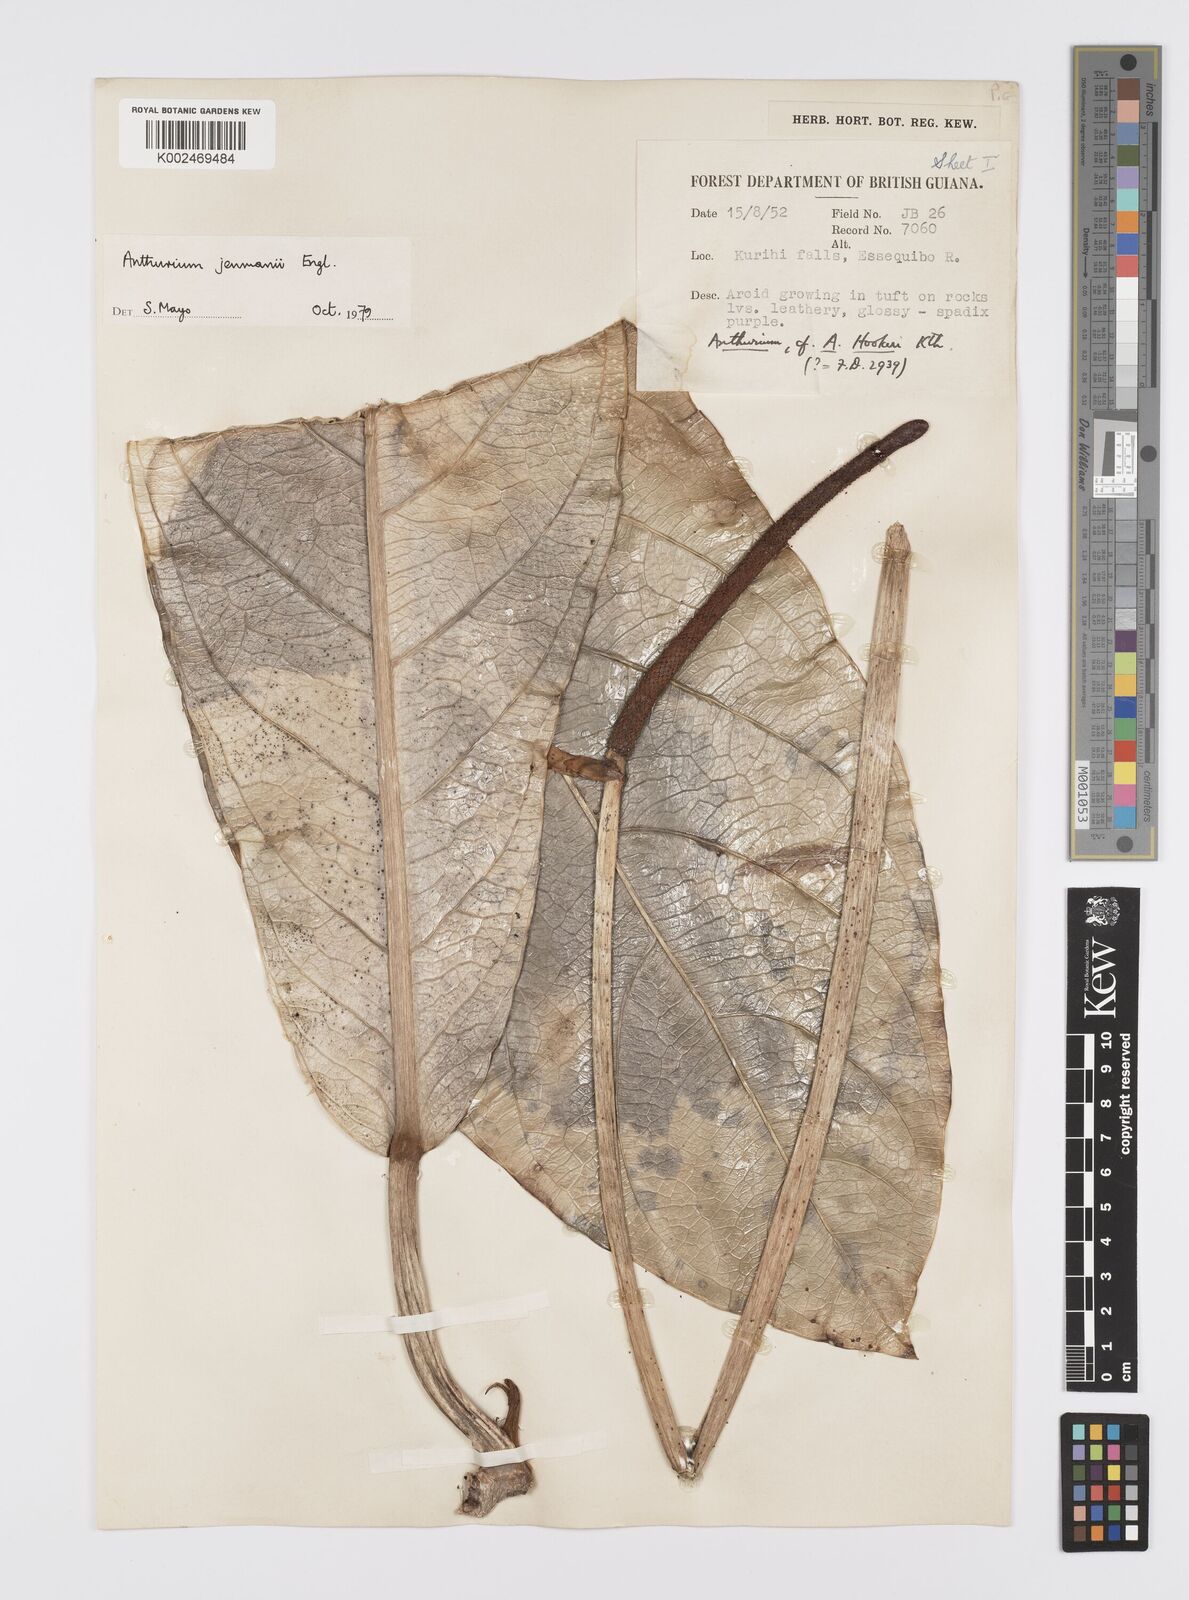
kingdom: Plantae
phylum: Tracheophyta
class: Liliopsida
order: Alismatales
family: Araceae
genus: Anthurium
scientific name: Anthurium jenmanii
